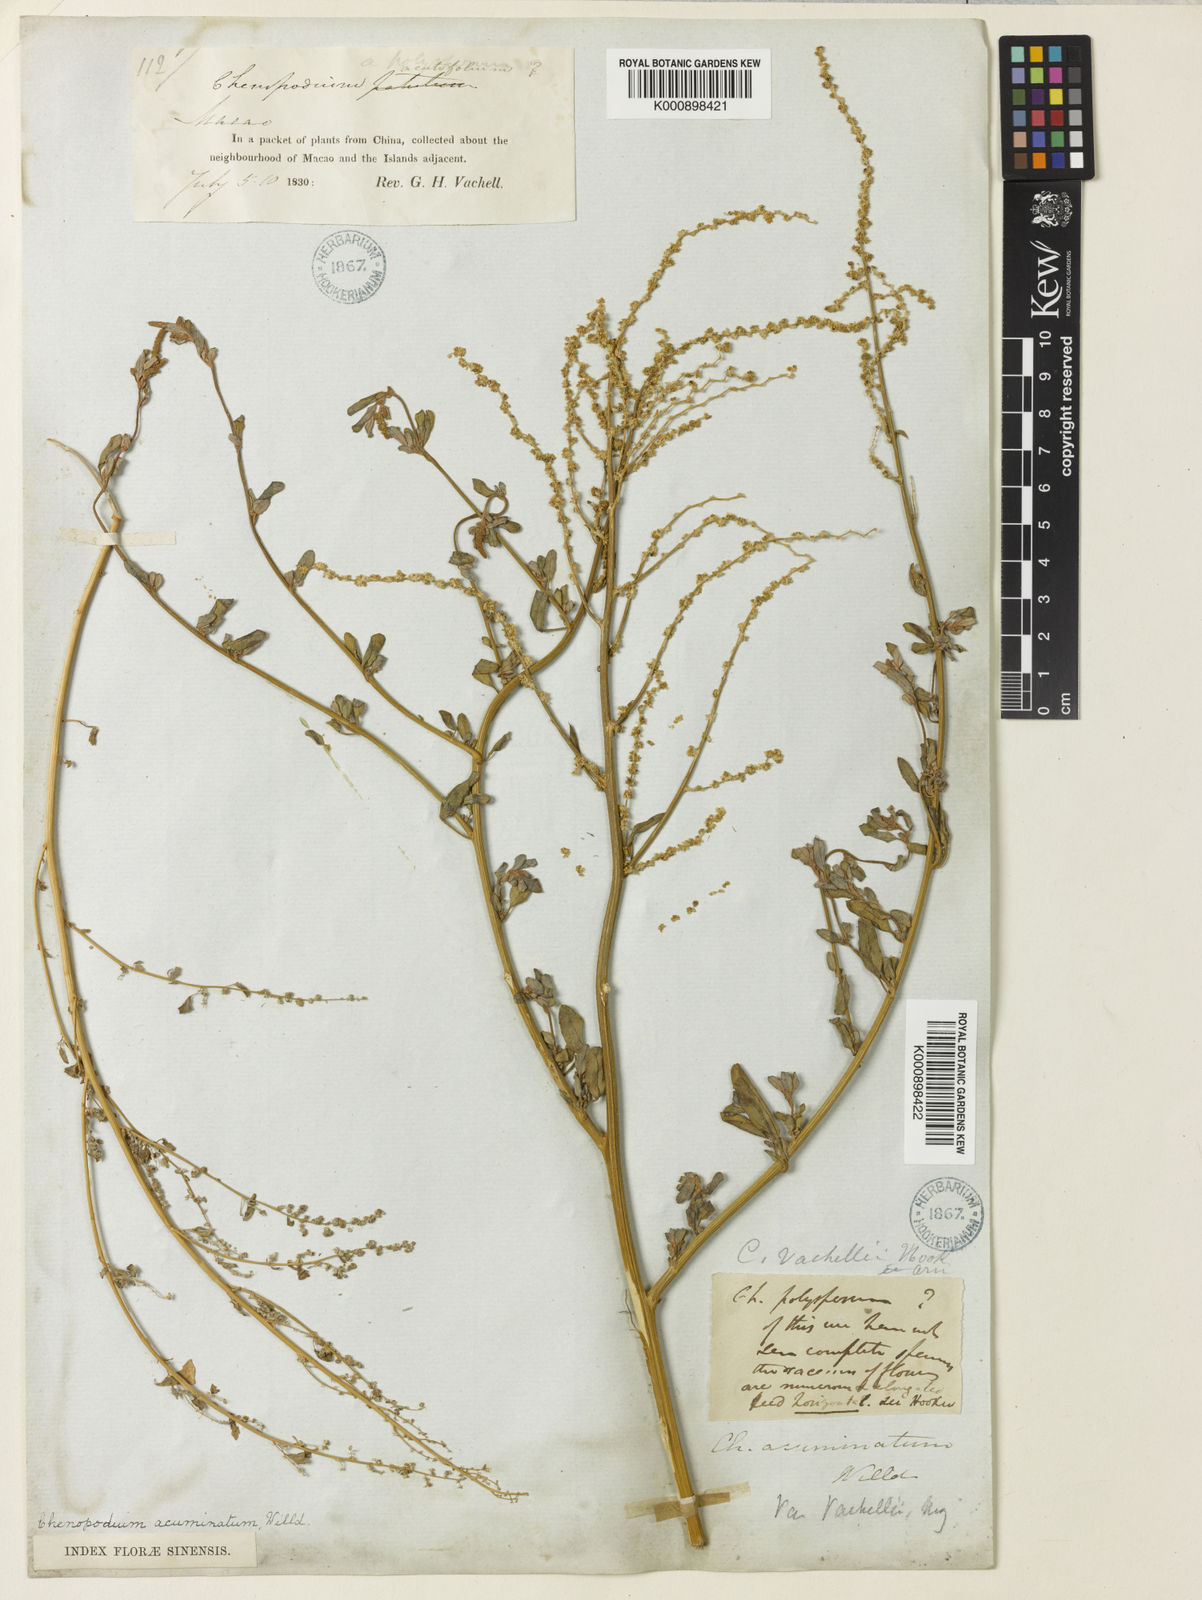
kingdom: Plantae
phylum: Tracheophyta
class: Magnoliopsida
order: Caryophyllales
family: Amaranthaceae
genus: Chenopodium
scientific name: Chenopodium acuminatum
